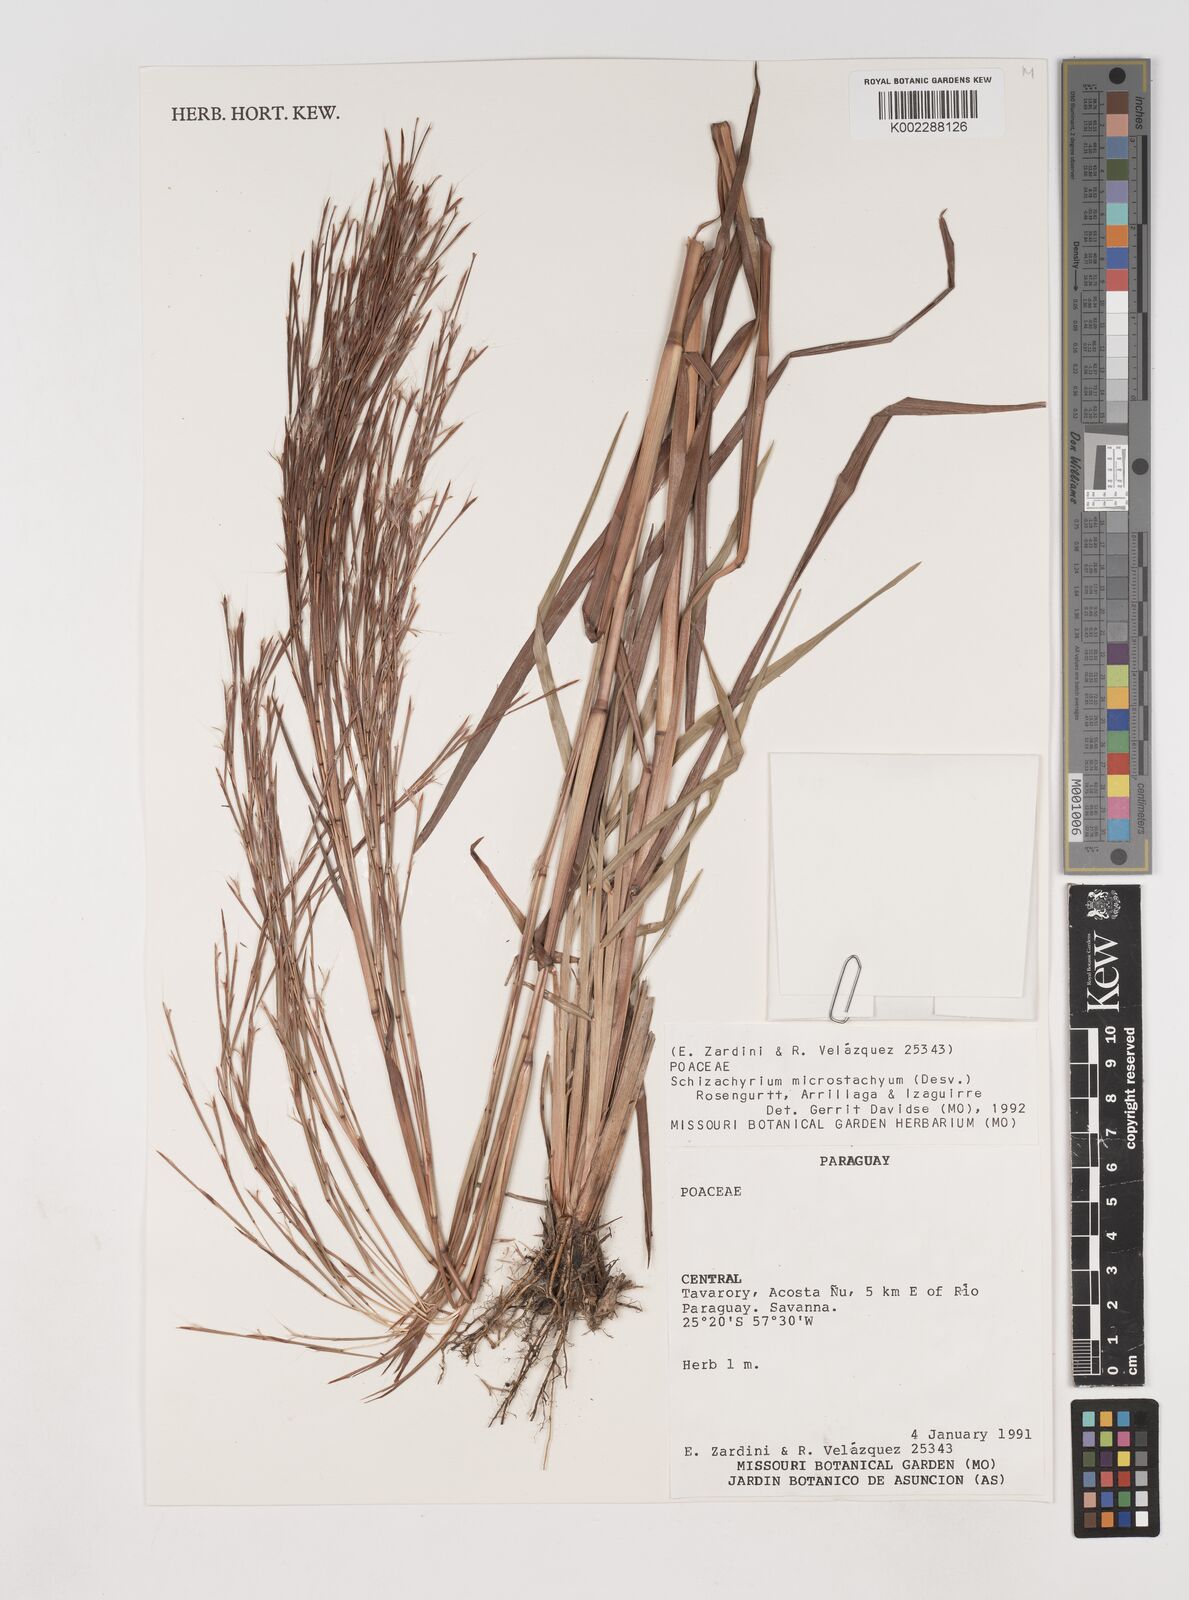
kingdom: Plantae
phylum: Tracheophyta
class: Liliopsida
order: Poales
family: Poaceae
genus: Schizachyrium
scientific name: Schizachyrium condensatum
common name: Bush beardgrass
